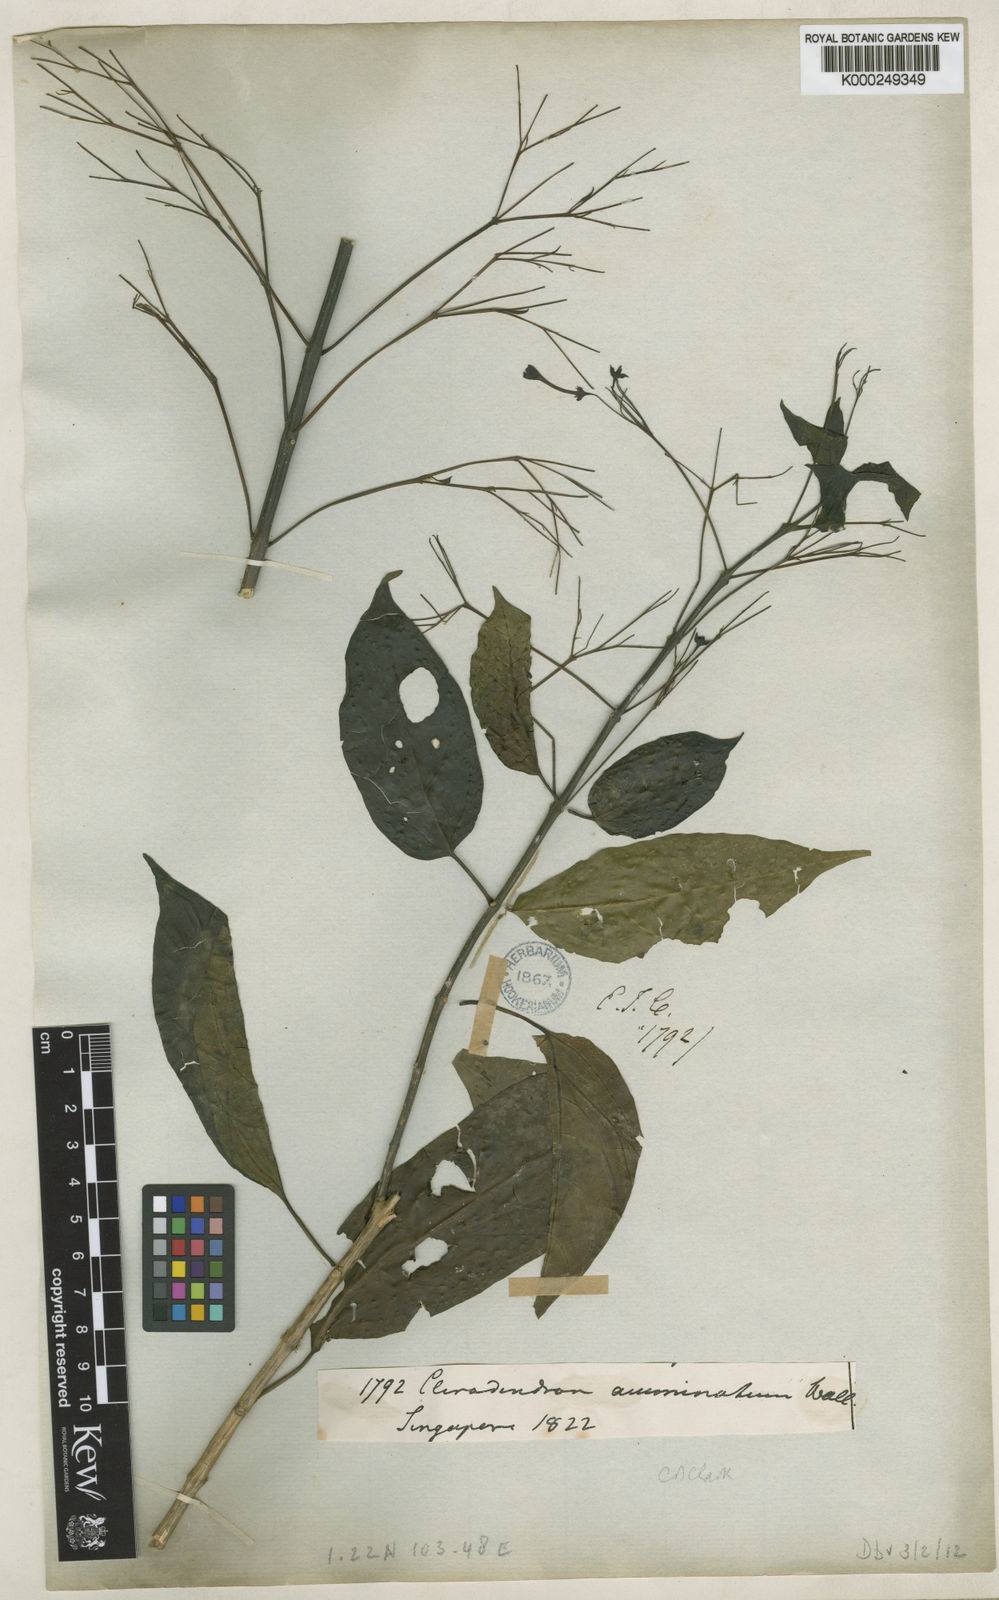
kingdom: Plantae
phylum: Tracheophyta
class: Magnoliopsida
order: Lamiales
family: Lamiaceae
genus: Clerodendrum
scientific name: Clerodendrum disparifolium
